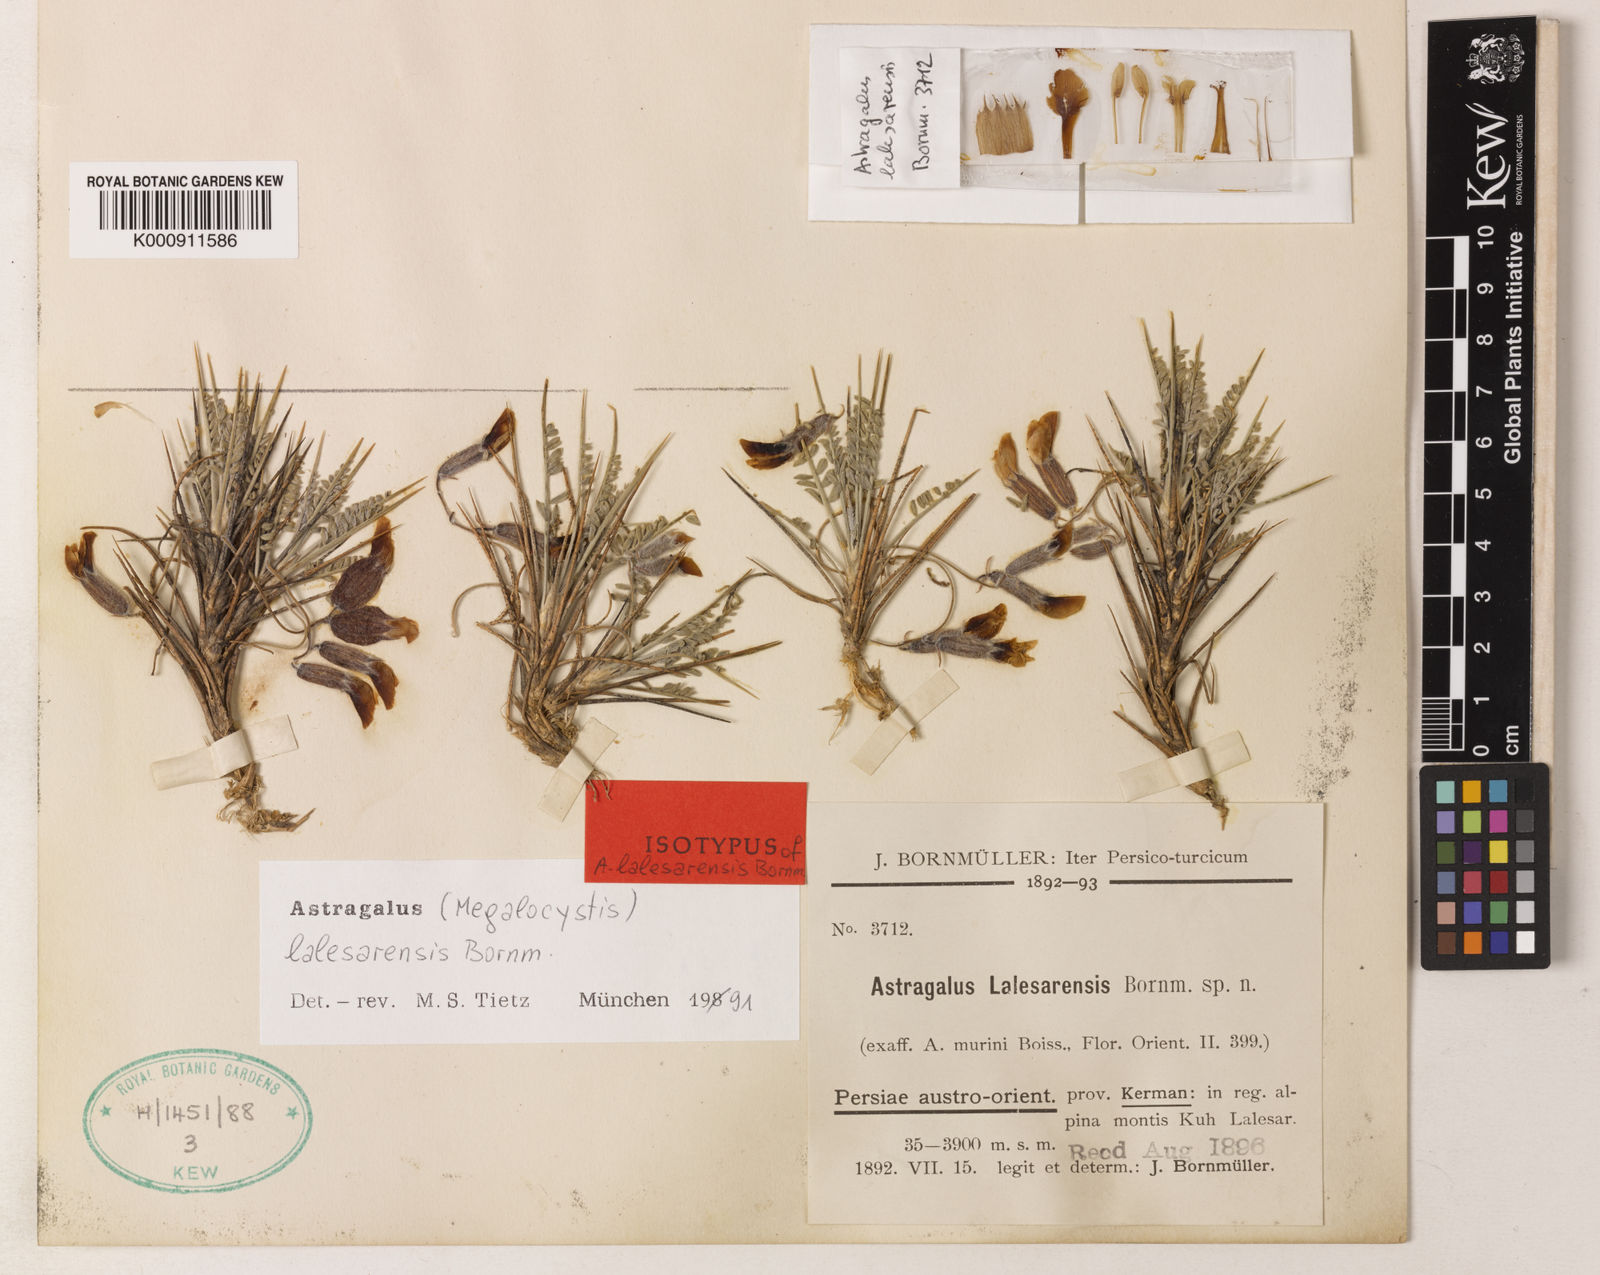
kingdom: Plantae
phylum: Tracheophyta
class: Magnoliopsida
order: Fabales
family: Fabaceae
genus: Astragalus
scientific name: Astragalus lalesarensis
